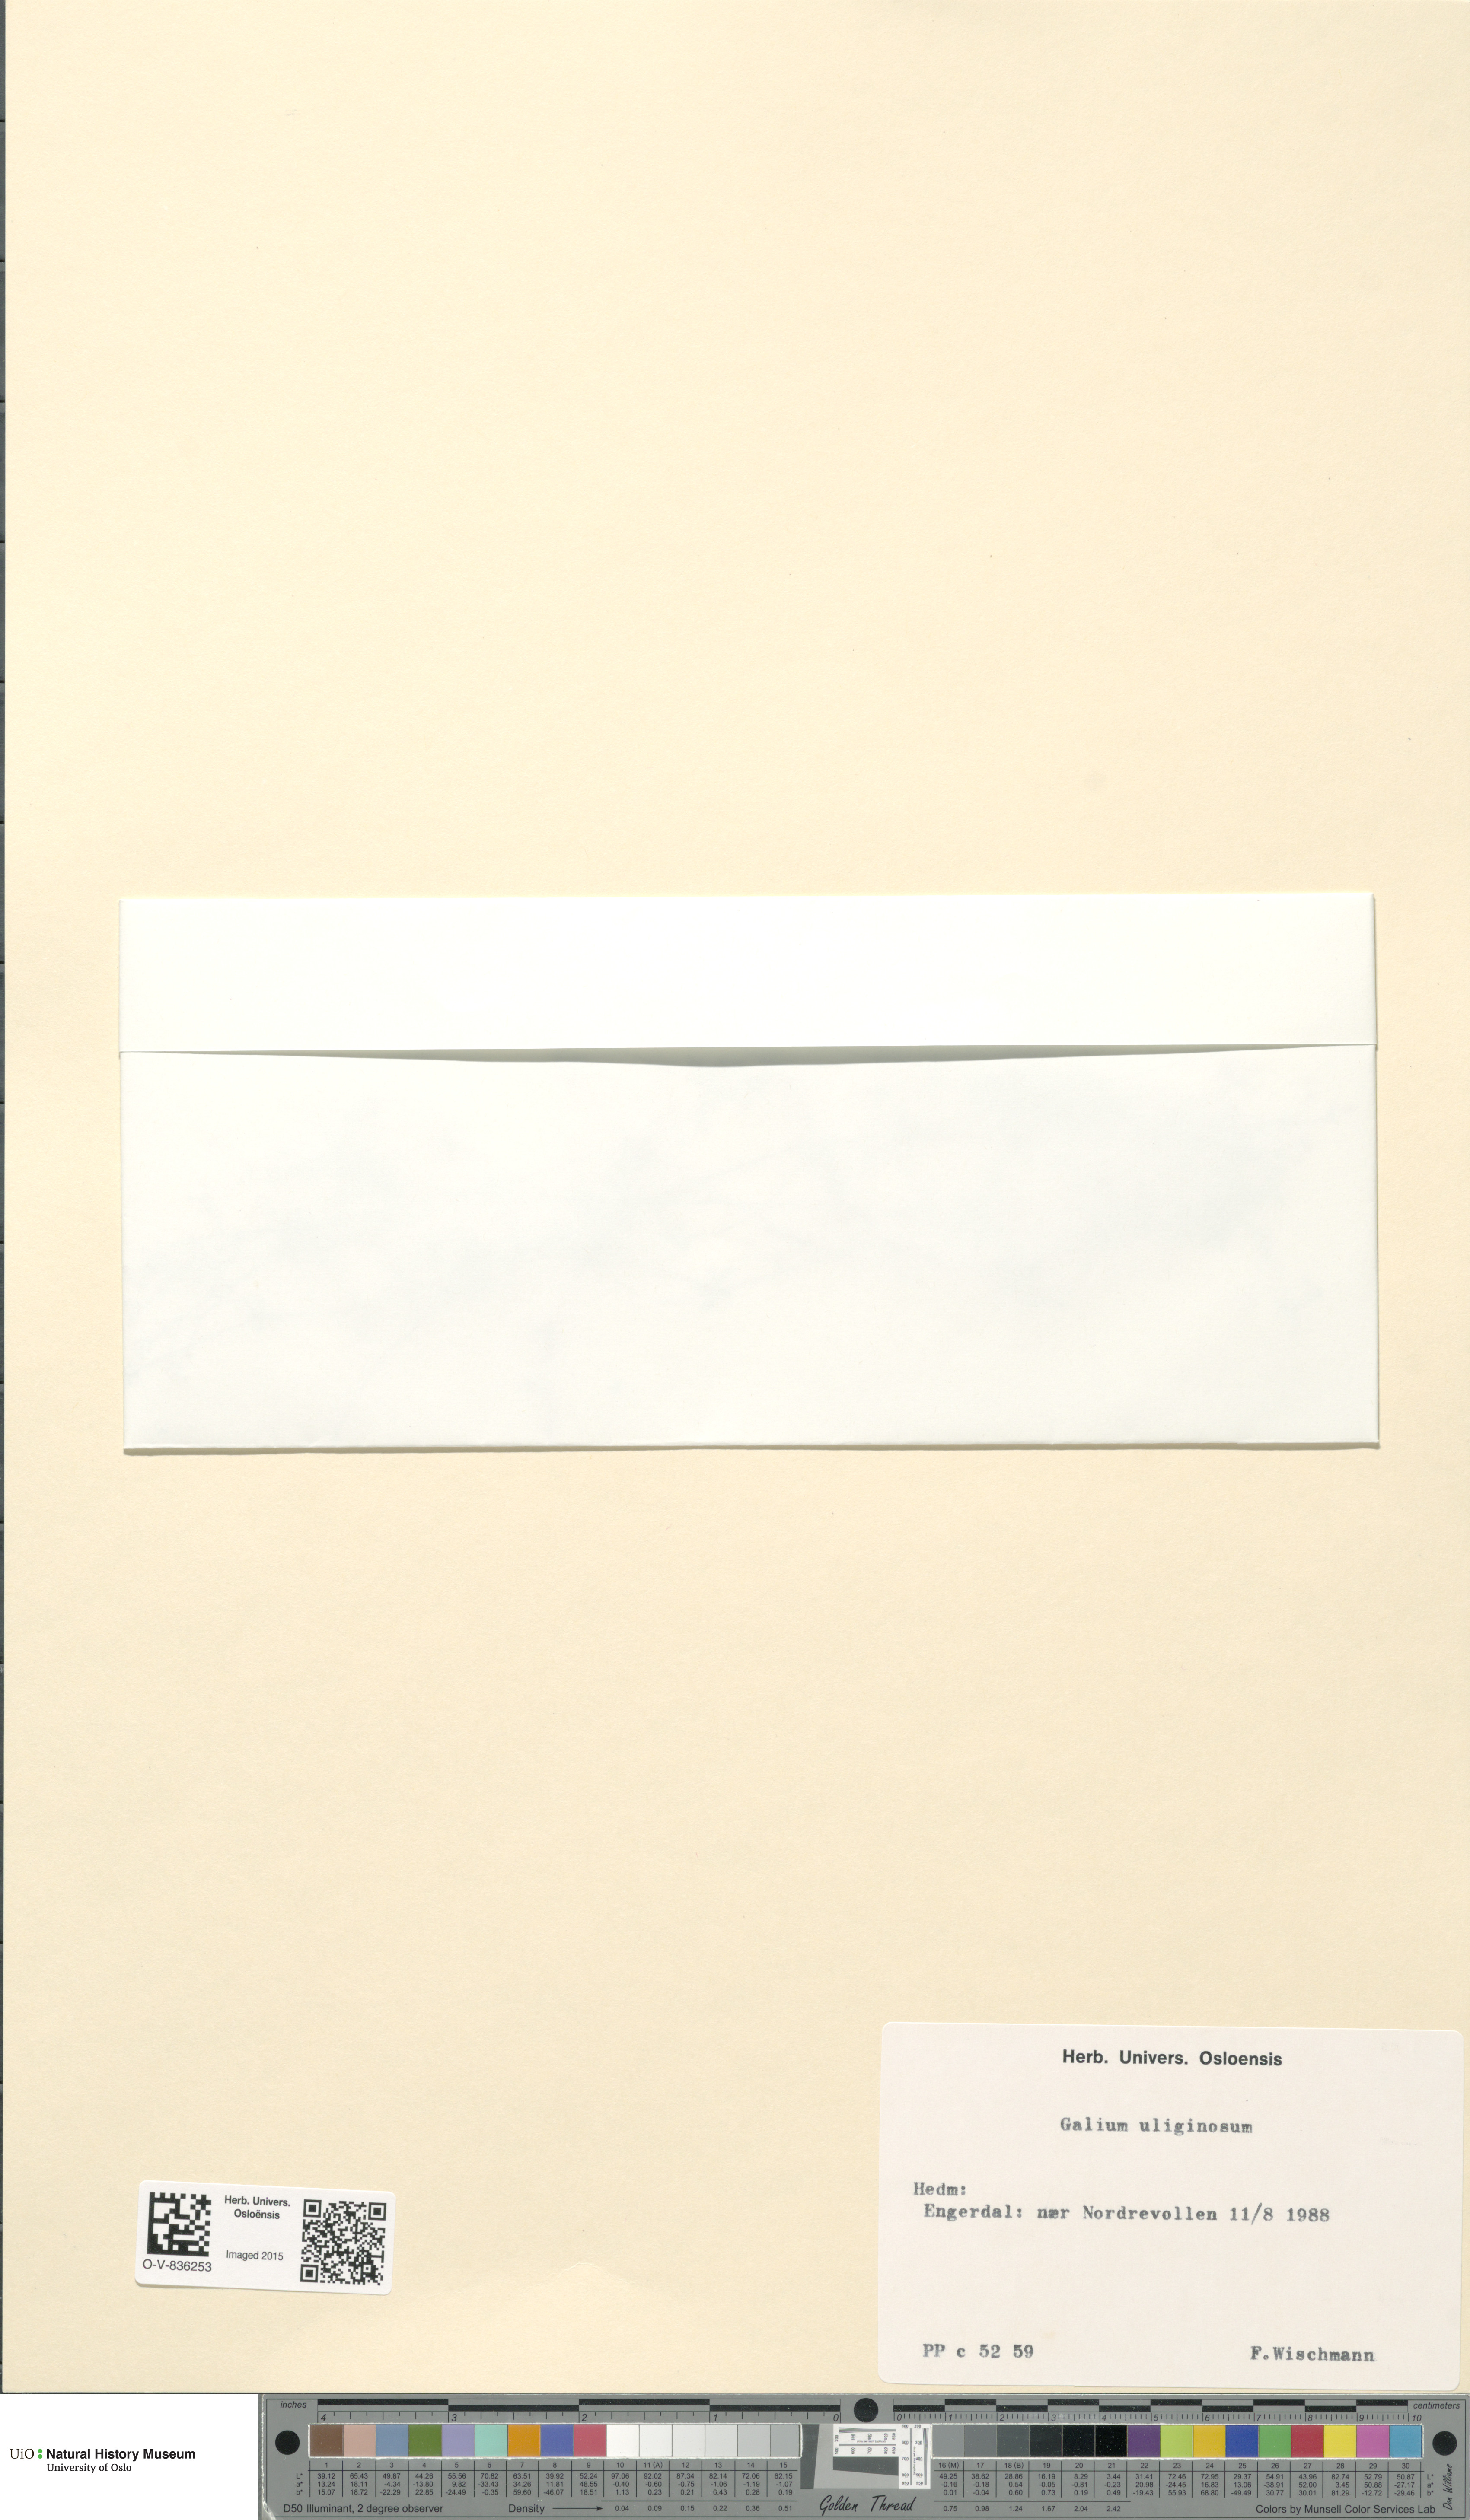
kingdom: Plantae
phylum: Tracheophyta
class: Magnoliopsida
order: Gentianales
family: Rubiaceae
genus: Galium
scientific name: Galium uliginosum
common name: Fen bedstraw
